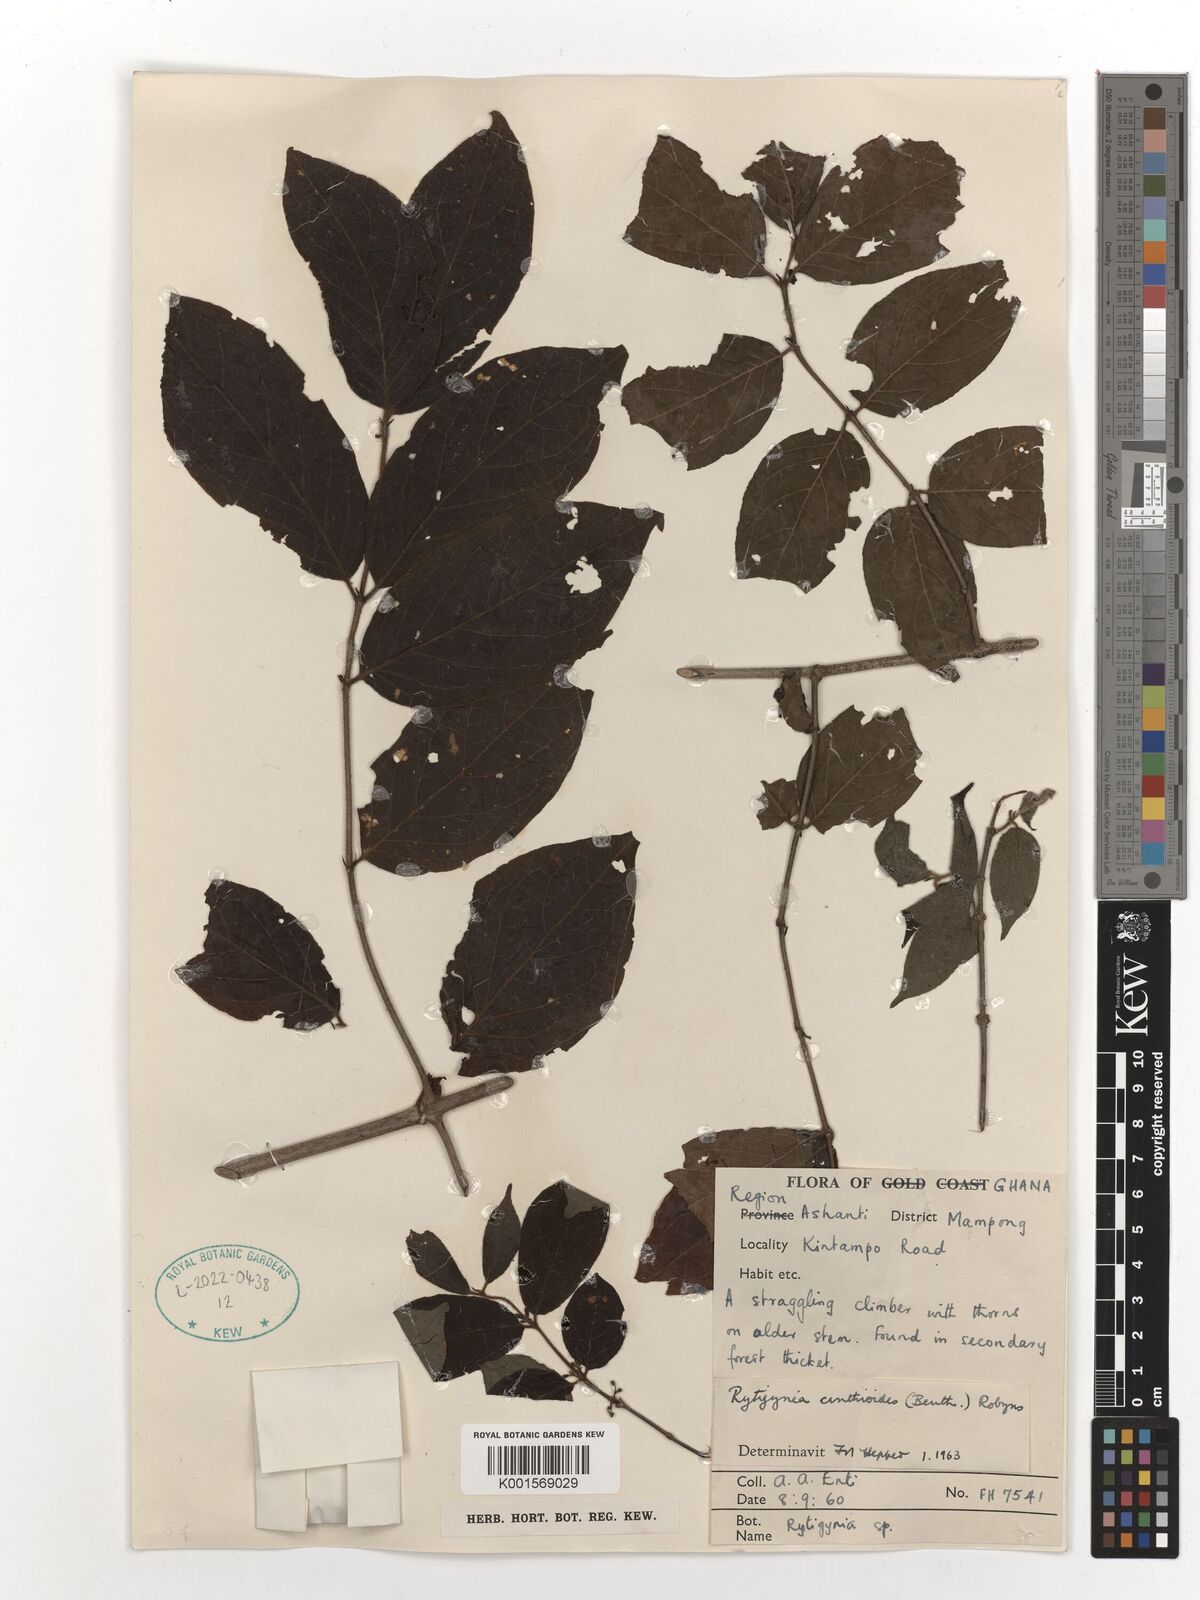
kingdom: Plantae
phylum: Tracheophyta
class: Magnoliopsida
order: Gentianales
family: Rubiaceae
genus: Rytigynia
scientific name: Rytigynia canthioides
